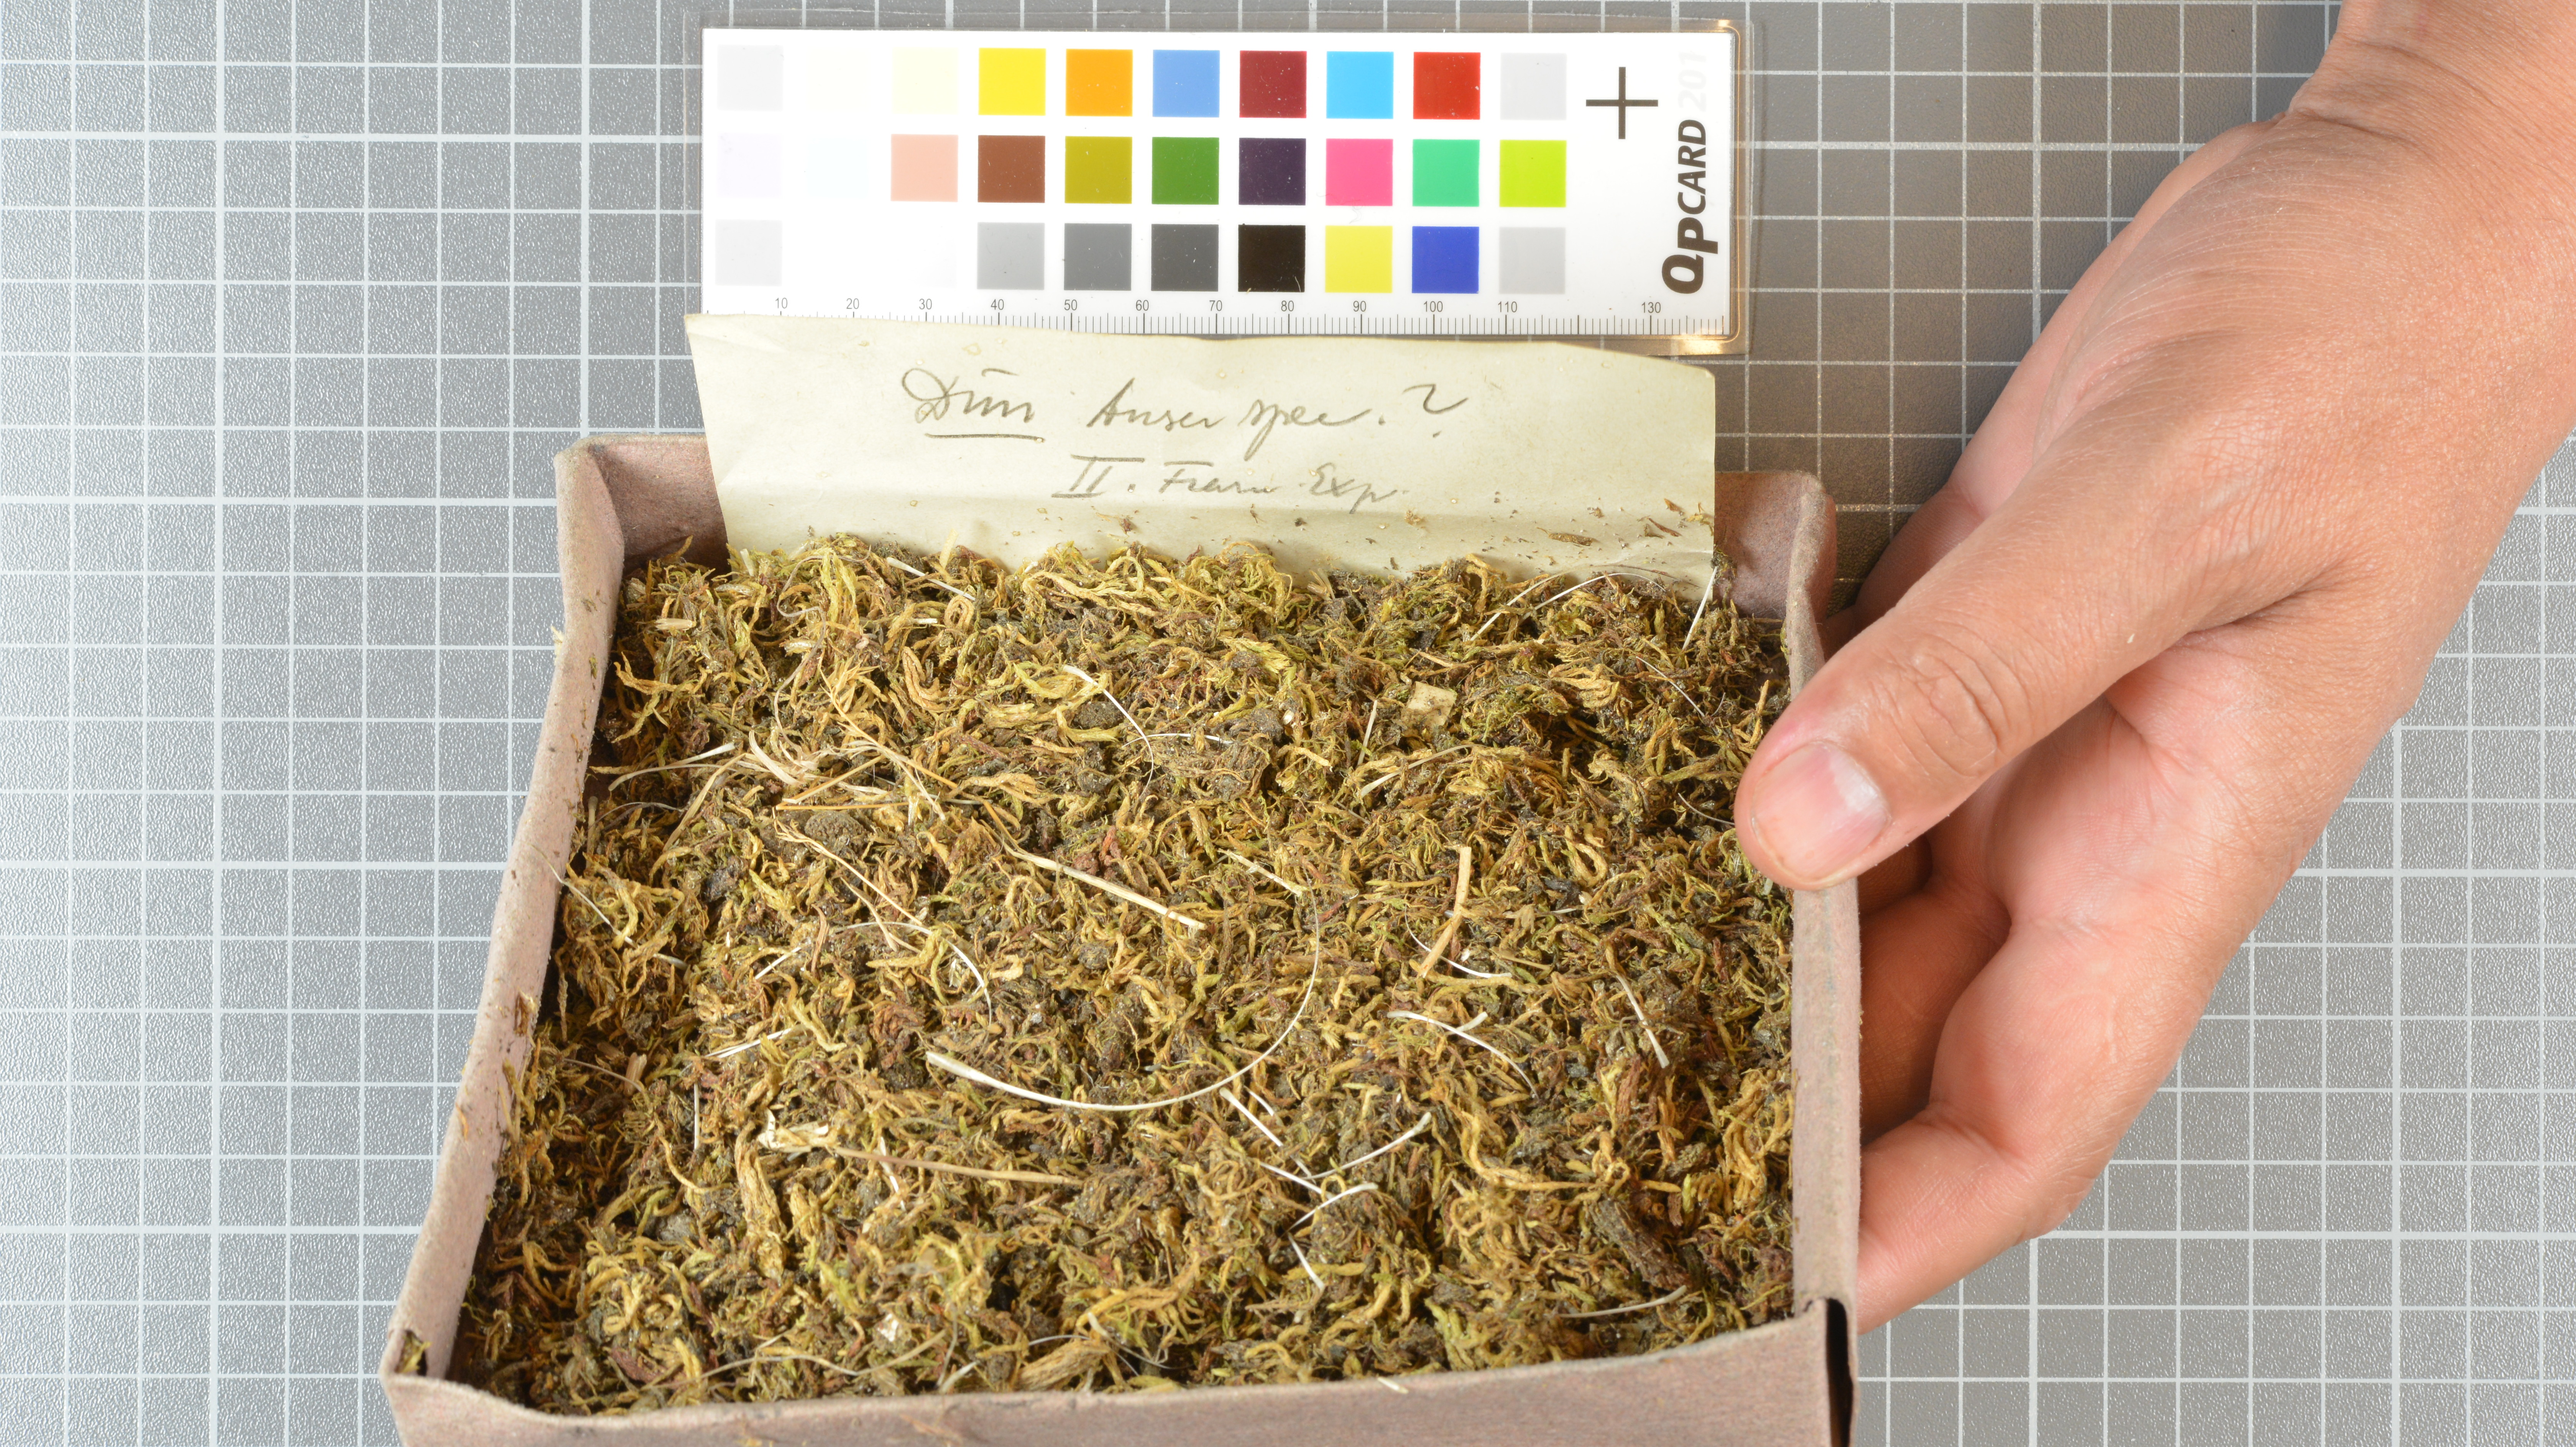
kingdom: Animalia
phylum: Chordata
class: Aves
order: Anseriformes
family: Anatidae
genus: Anser
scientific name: Anser
